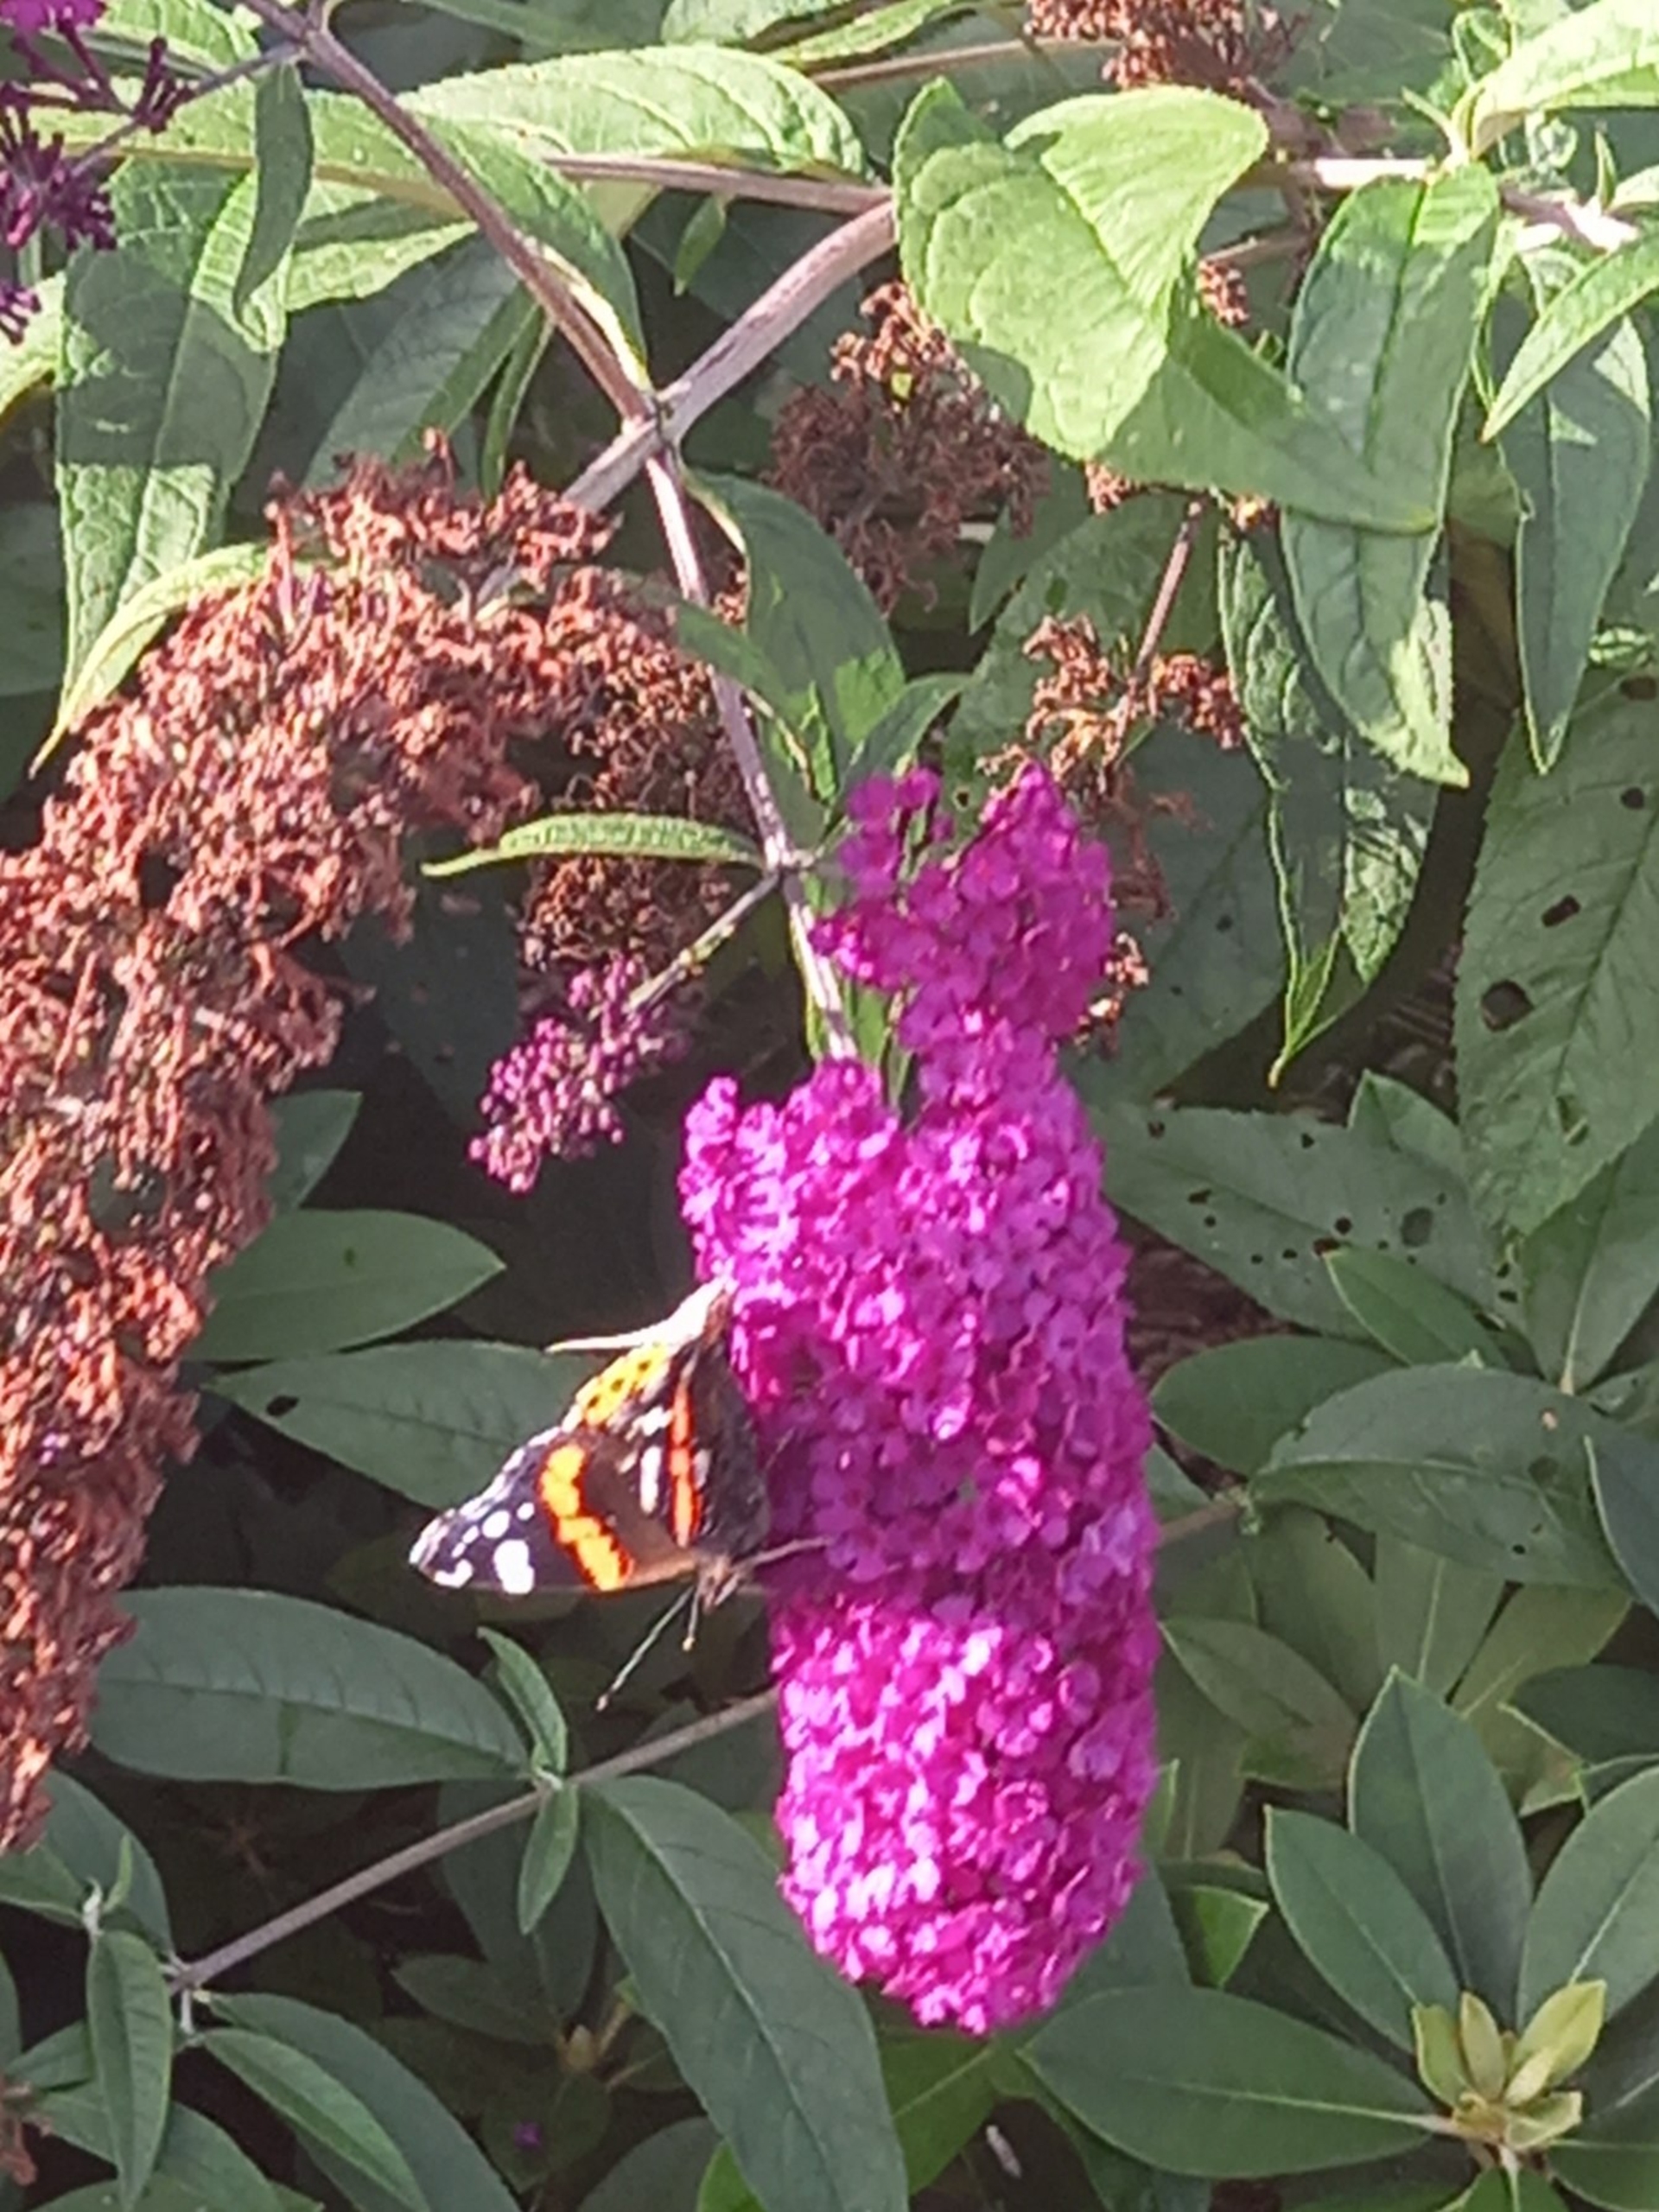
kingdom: Animalia
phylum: Arthropoda
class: Insecta
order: Lepidoptera
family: Nymphalidae
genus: Vanessa
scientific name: Vanessa atalanta
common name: Admiral
